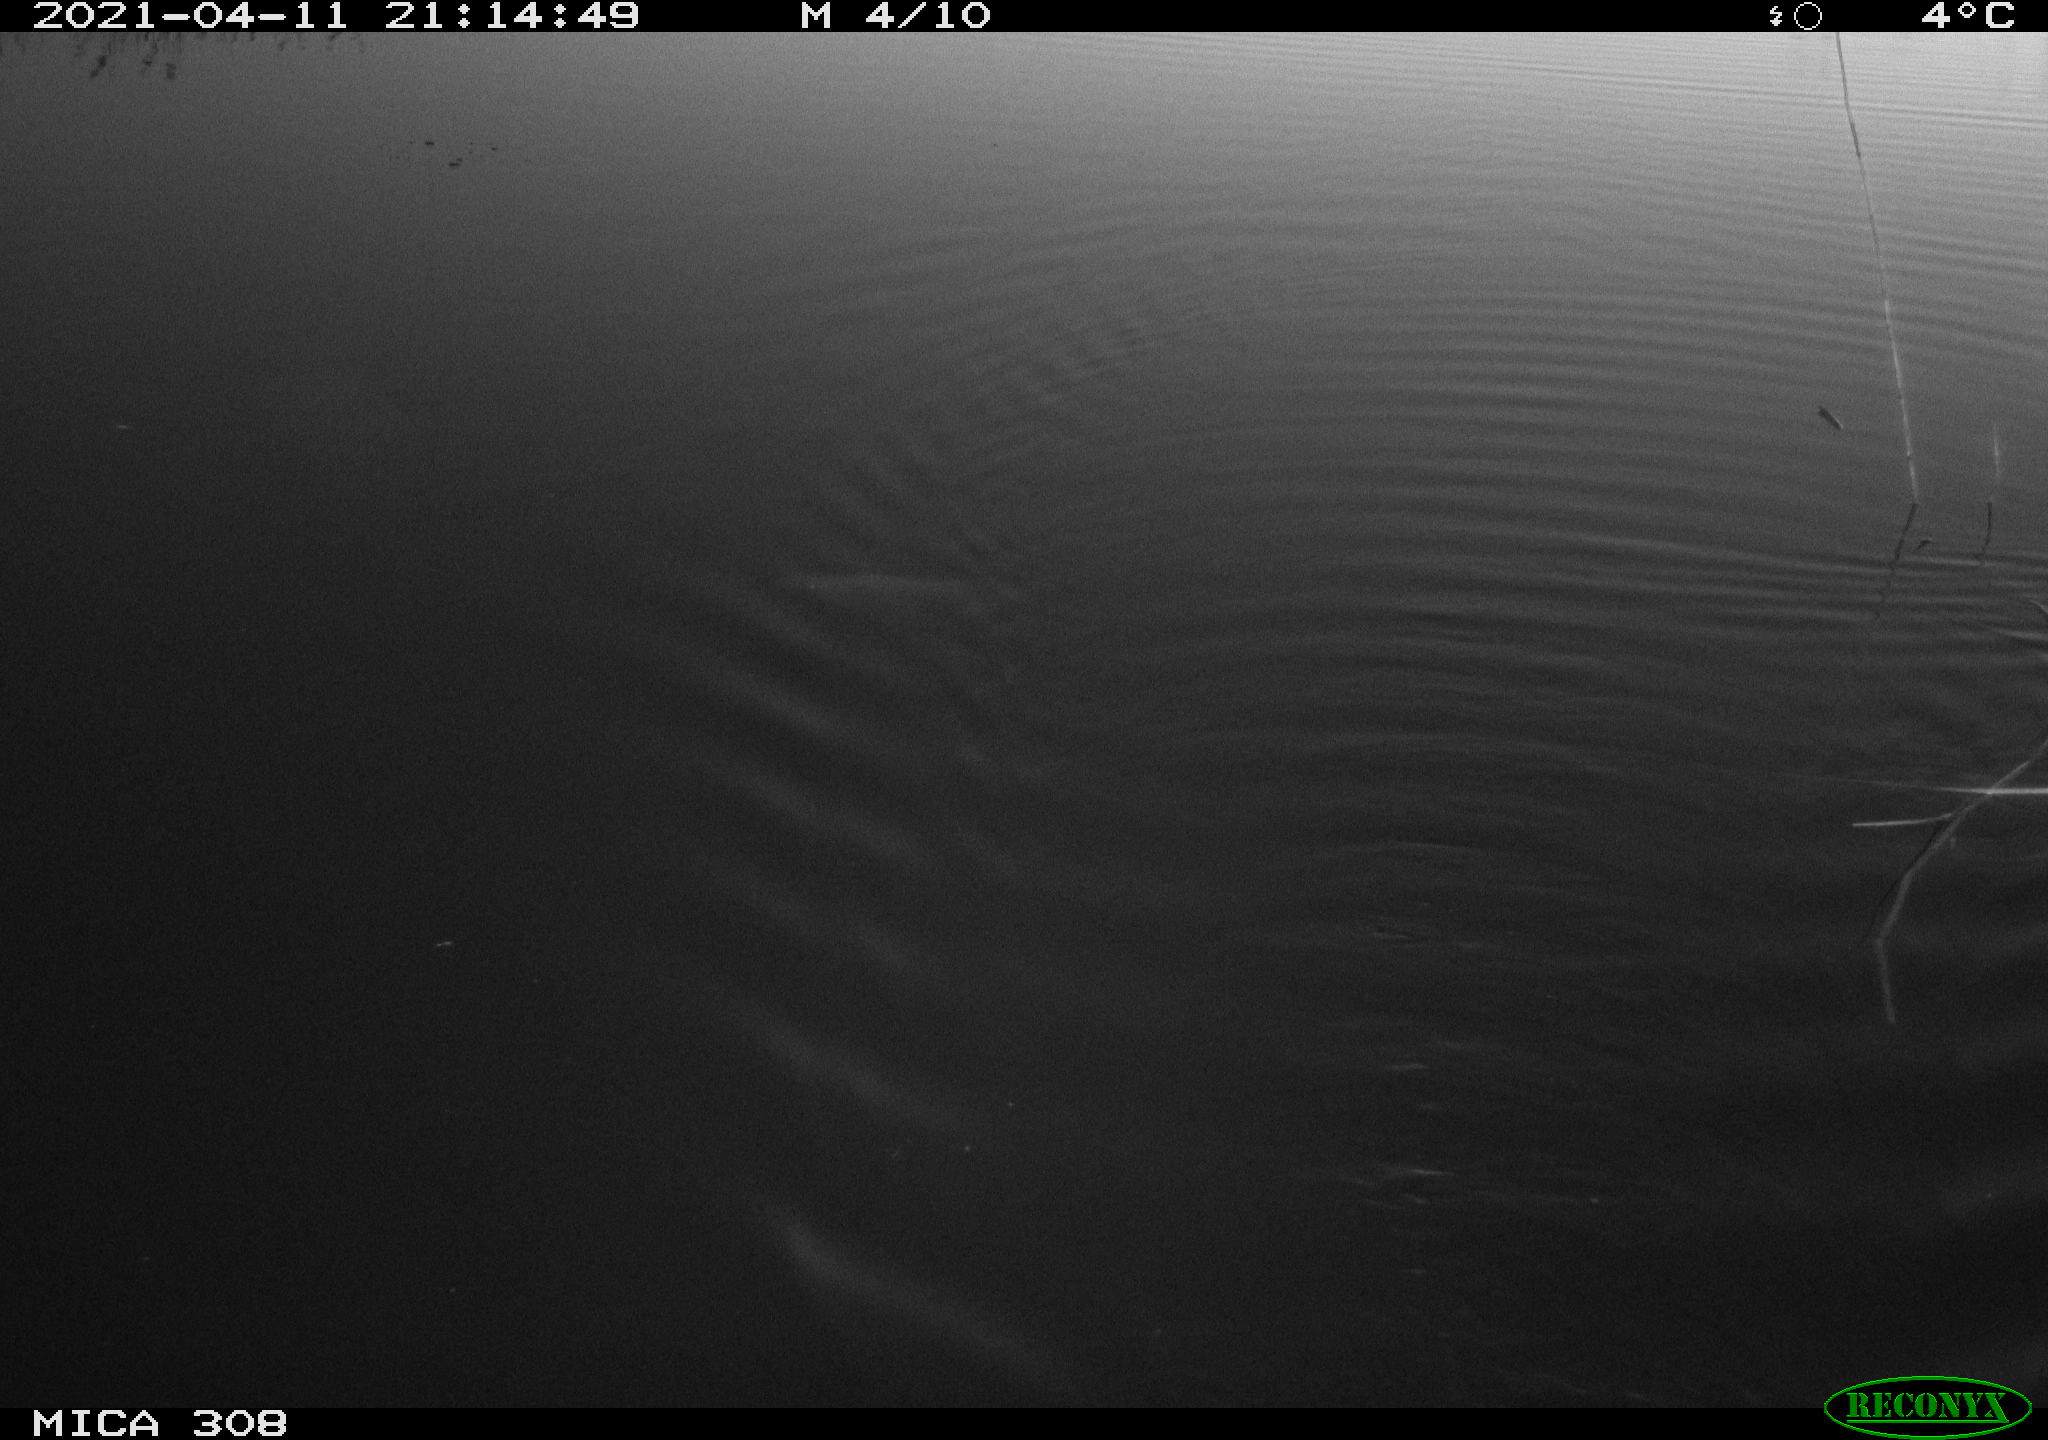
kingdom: Animalia
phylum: Chordata
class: Aves
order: Anseriformes
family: Anatidae
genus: Anas
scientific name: Anas platyrhynchos
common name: Mallard
